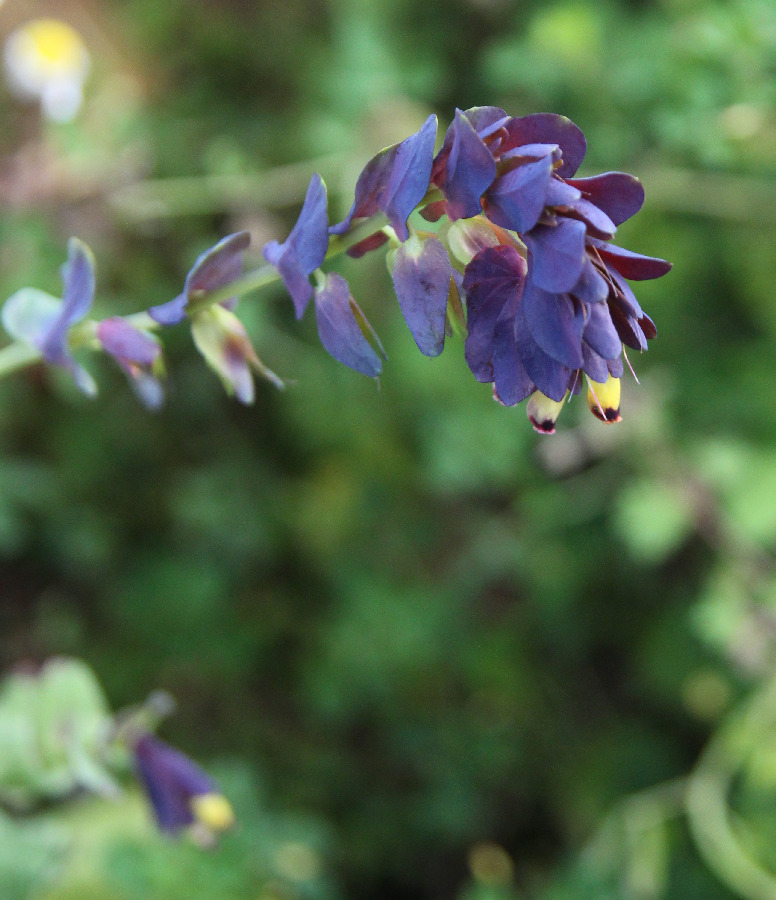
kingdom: Plantae
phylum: Tracheophyta
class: Magnoliopsida
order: Boraginales
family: Boraginaceae
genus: Cerinthe
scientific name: Cerinthe retorta
